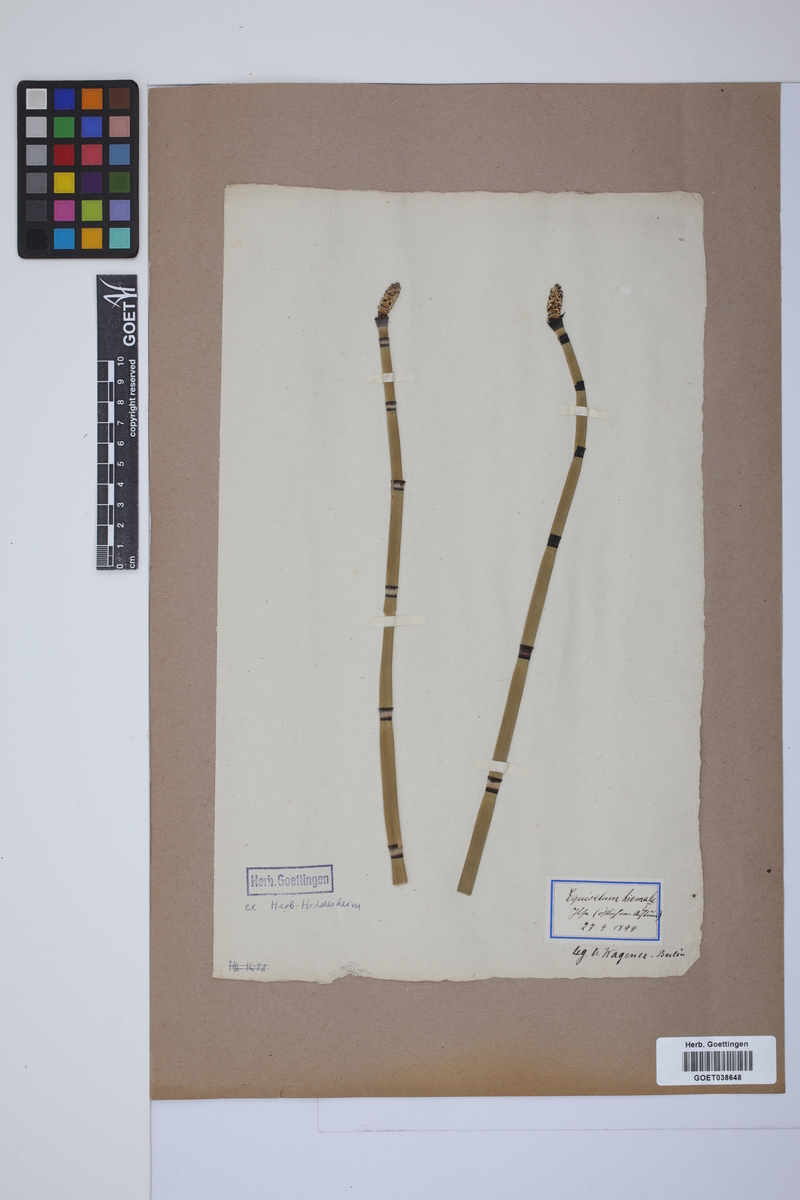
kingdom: Plantae
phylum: Tracheophyta
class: Polypodiopsida
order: Equisetales
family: Equisetaceae
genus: Equisetum
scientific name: Equisetum hyemale
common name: Rough horsetail
